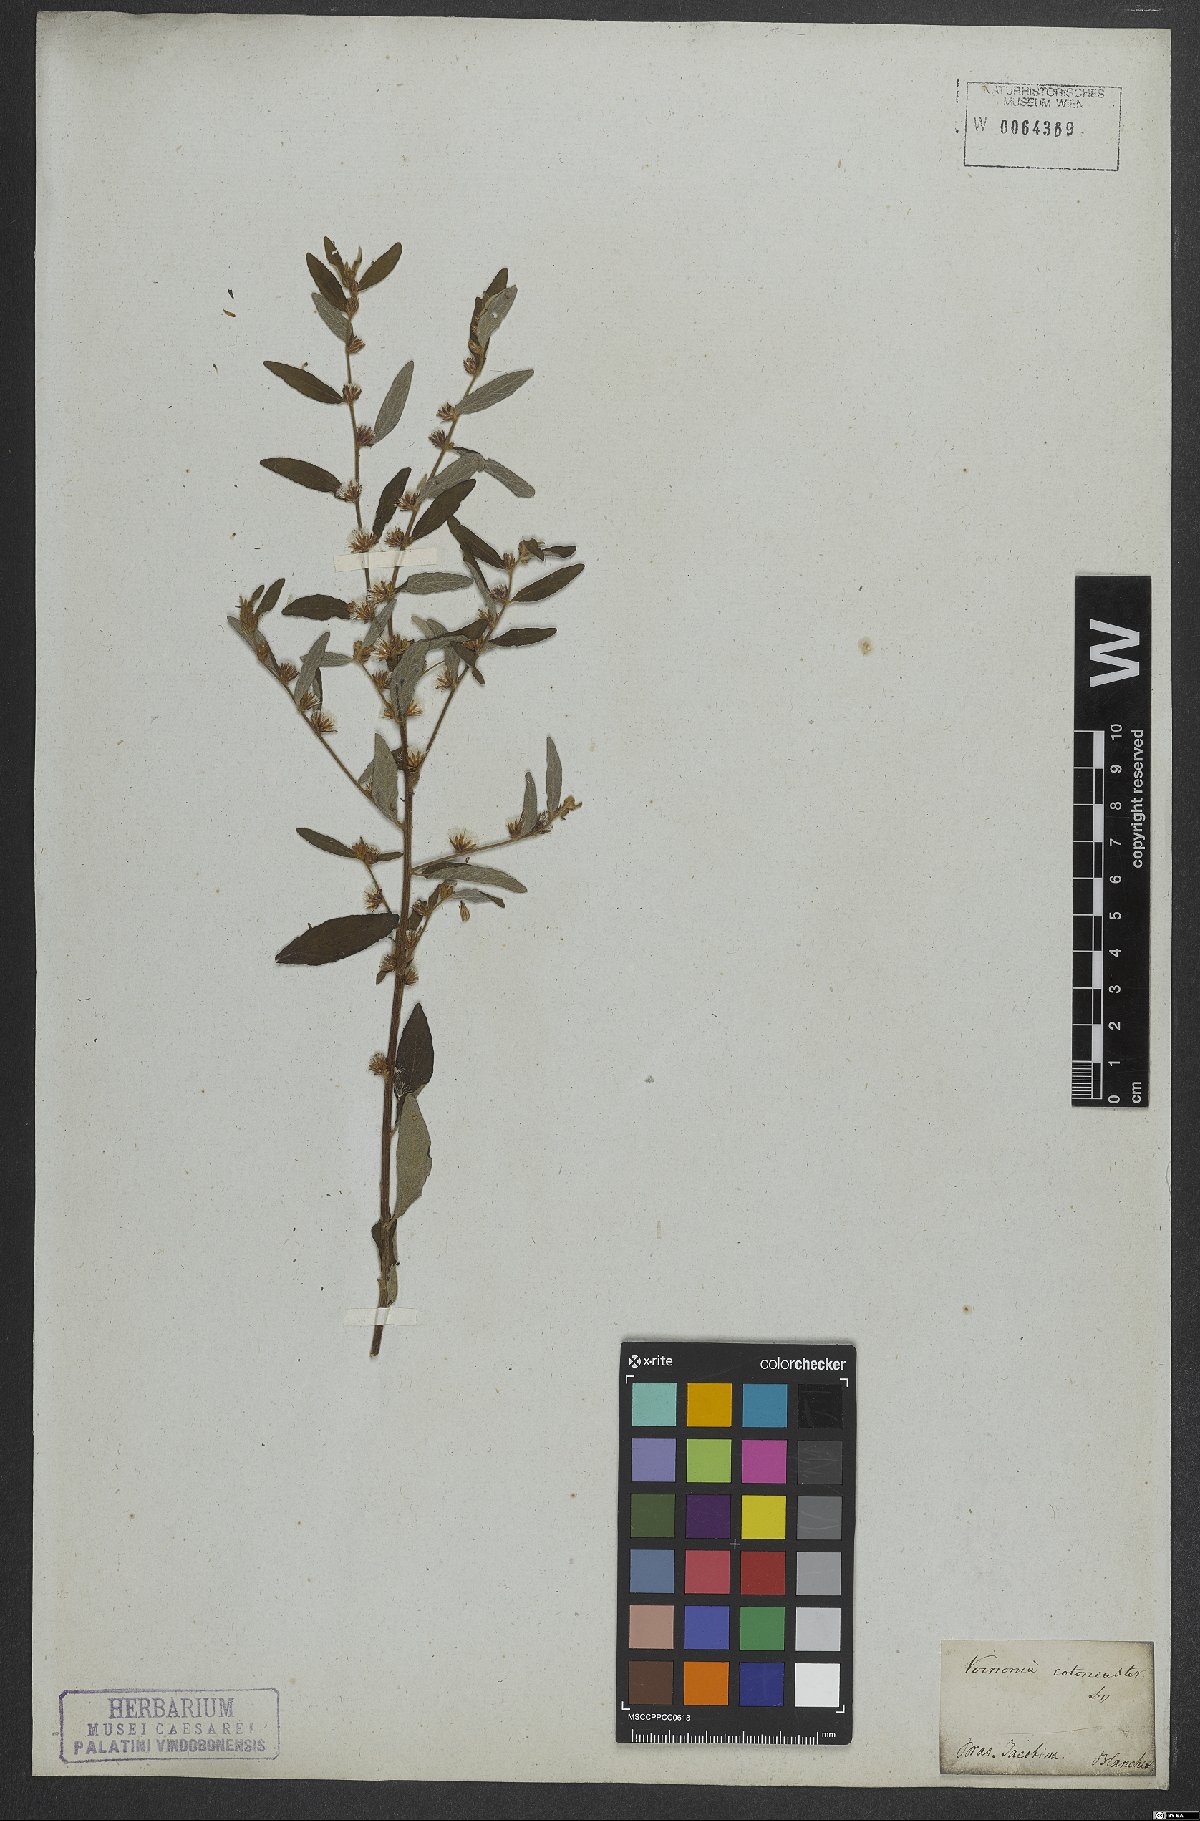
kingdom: Plantae
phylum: Tracheophyta
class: Magnoliopsida
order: Asterales
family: Asteraceae
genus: Lepidaploa
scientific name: Lepidaploa cotoneaster
